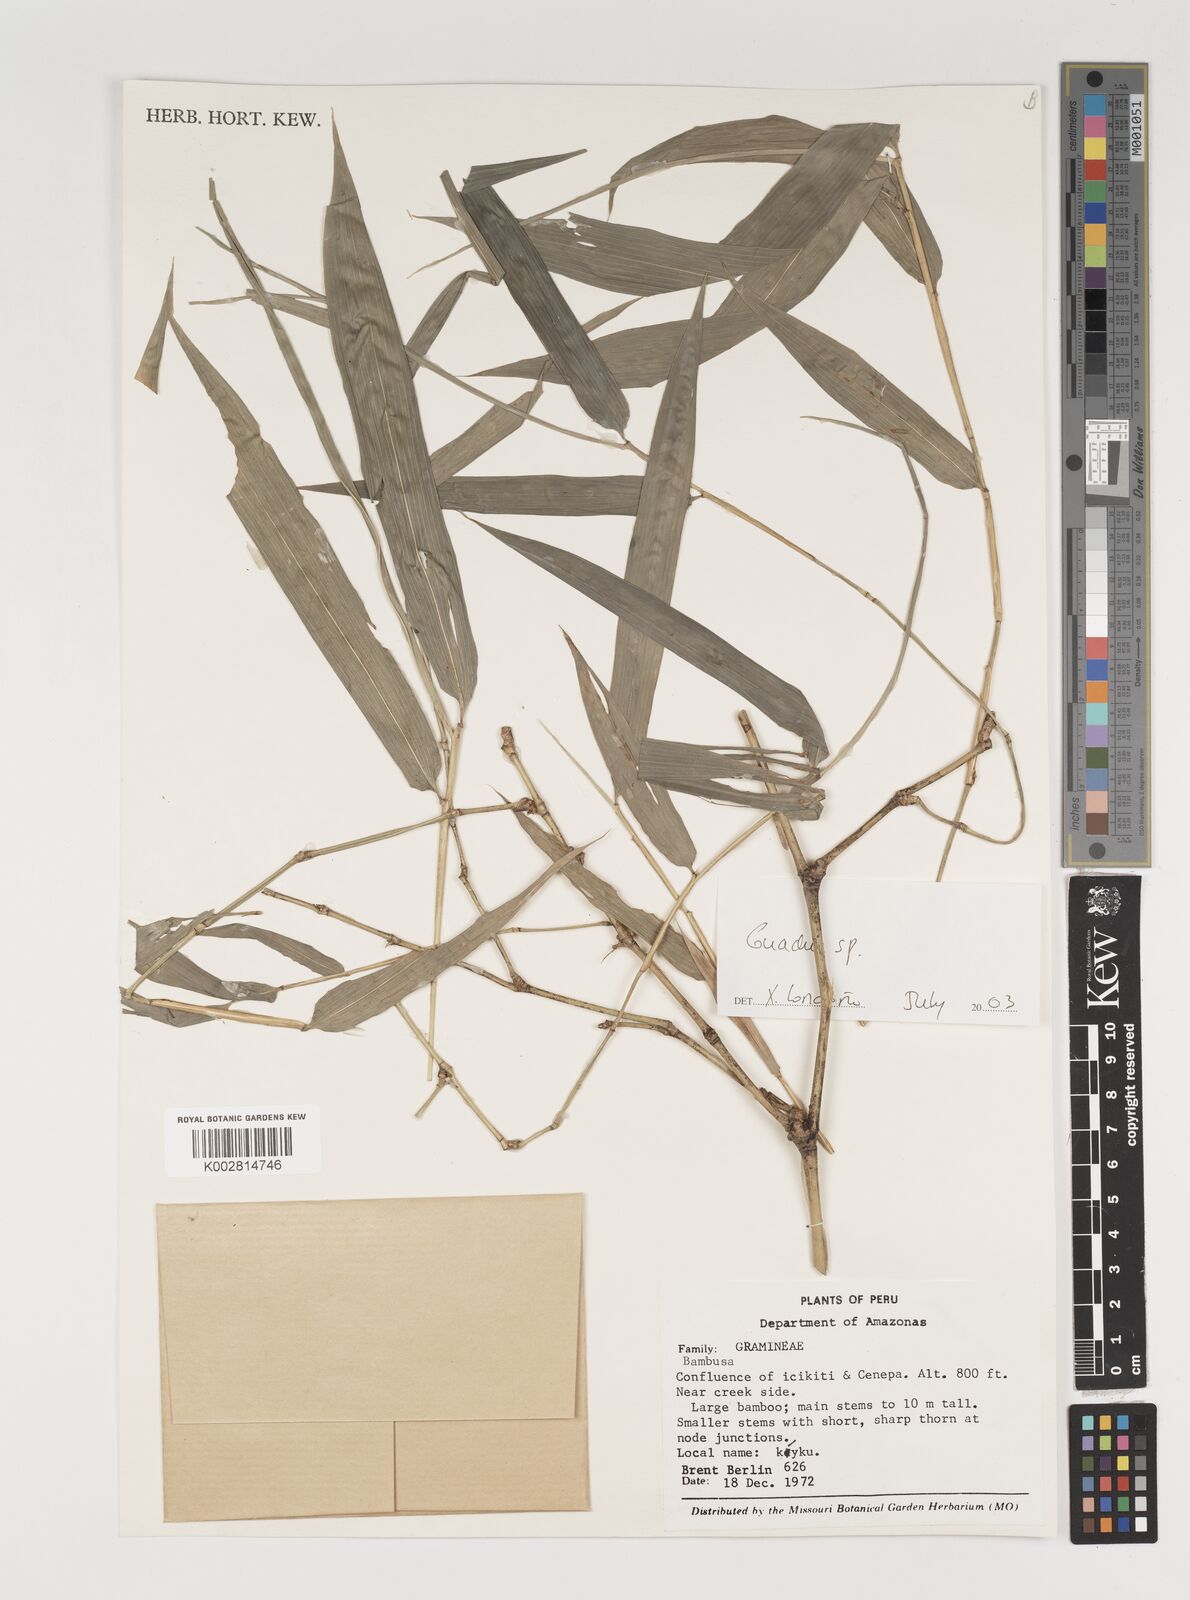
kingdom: Plantae
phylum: Tracheophyta
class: Liliopsida
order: Poales
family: Poaceae
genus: Guadua
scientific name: Guadua
